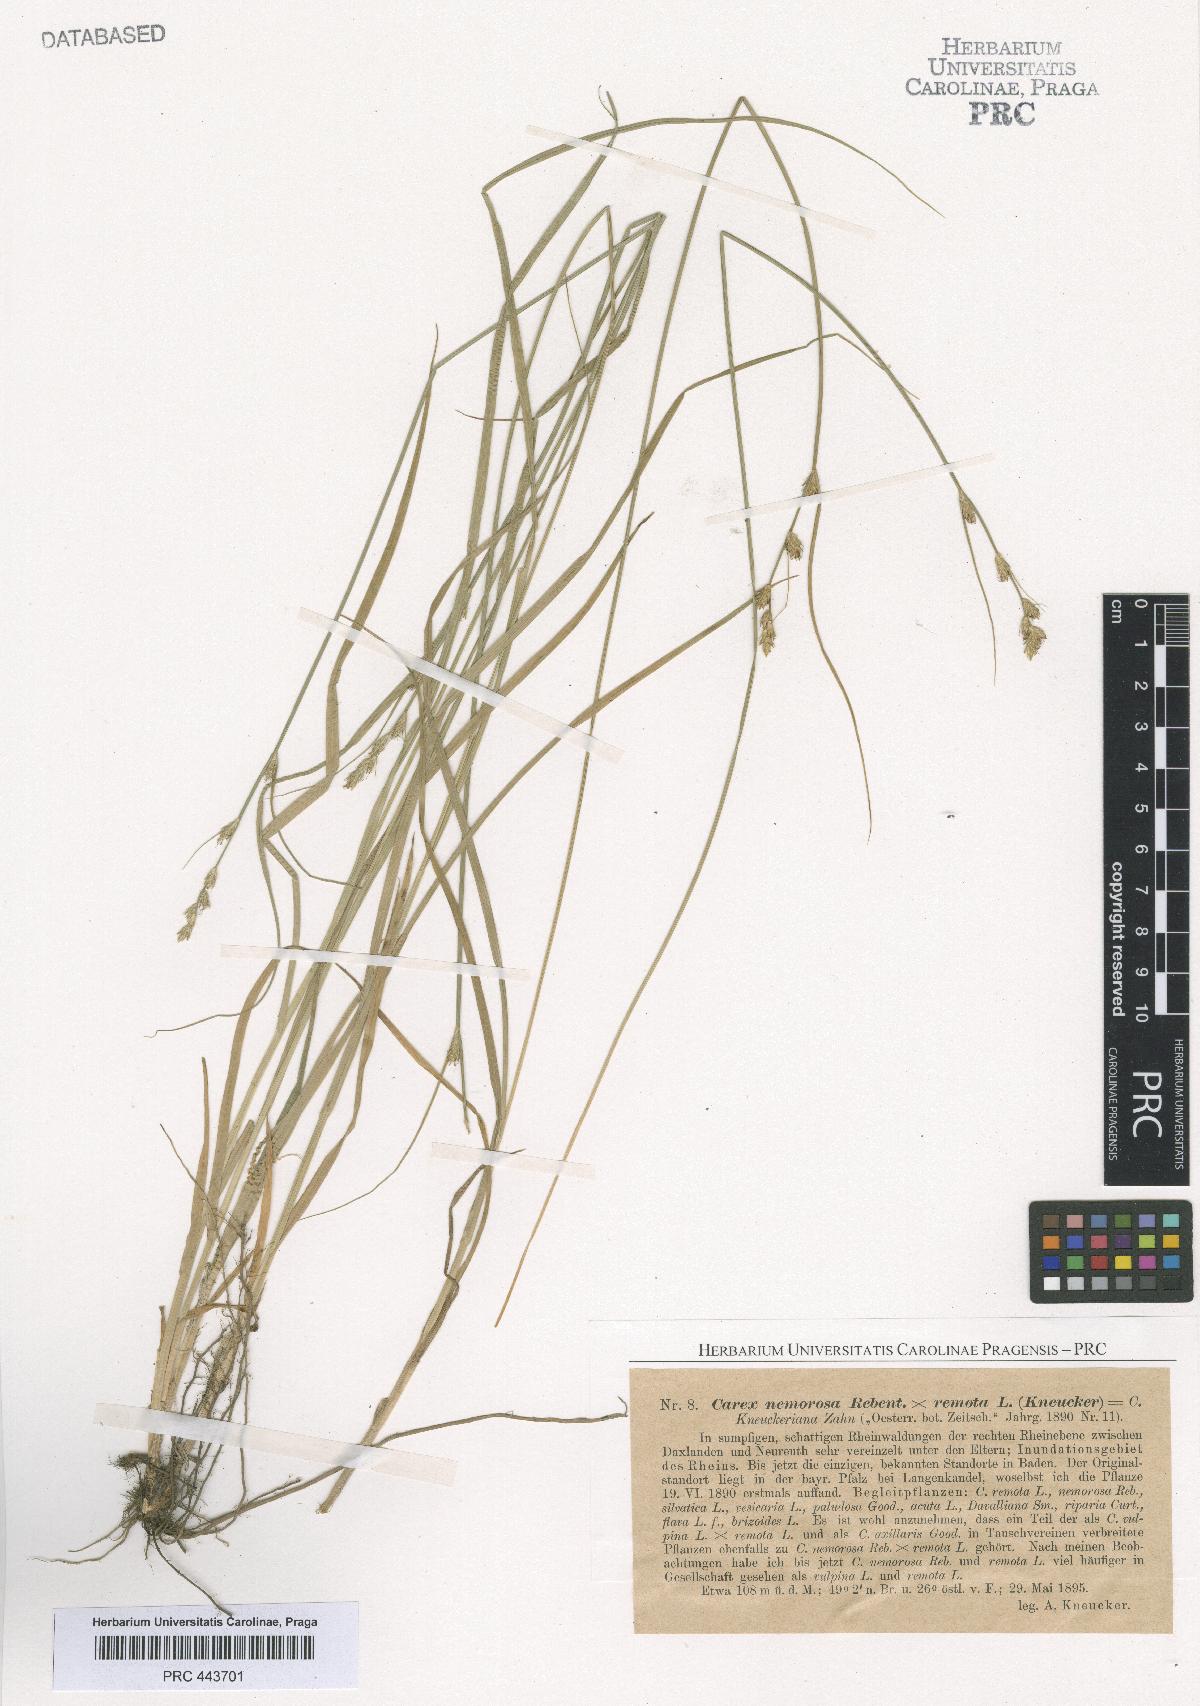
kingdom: Plantae
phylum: Tracheophyta
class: Liliopsida
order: Poales
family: Cyperaceae
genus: Carex
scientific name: Carex pseudoaxillaris
